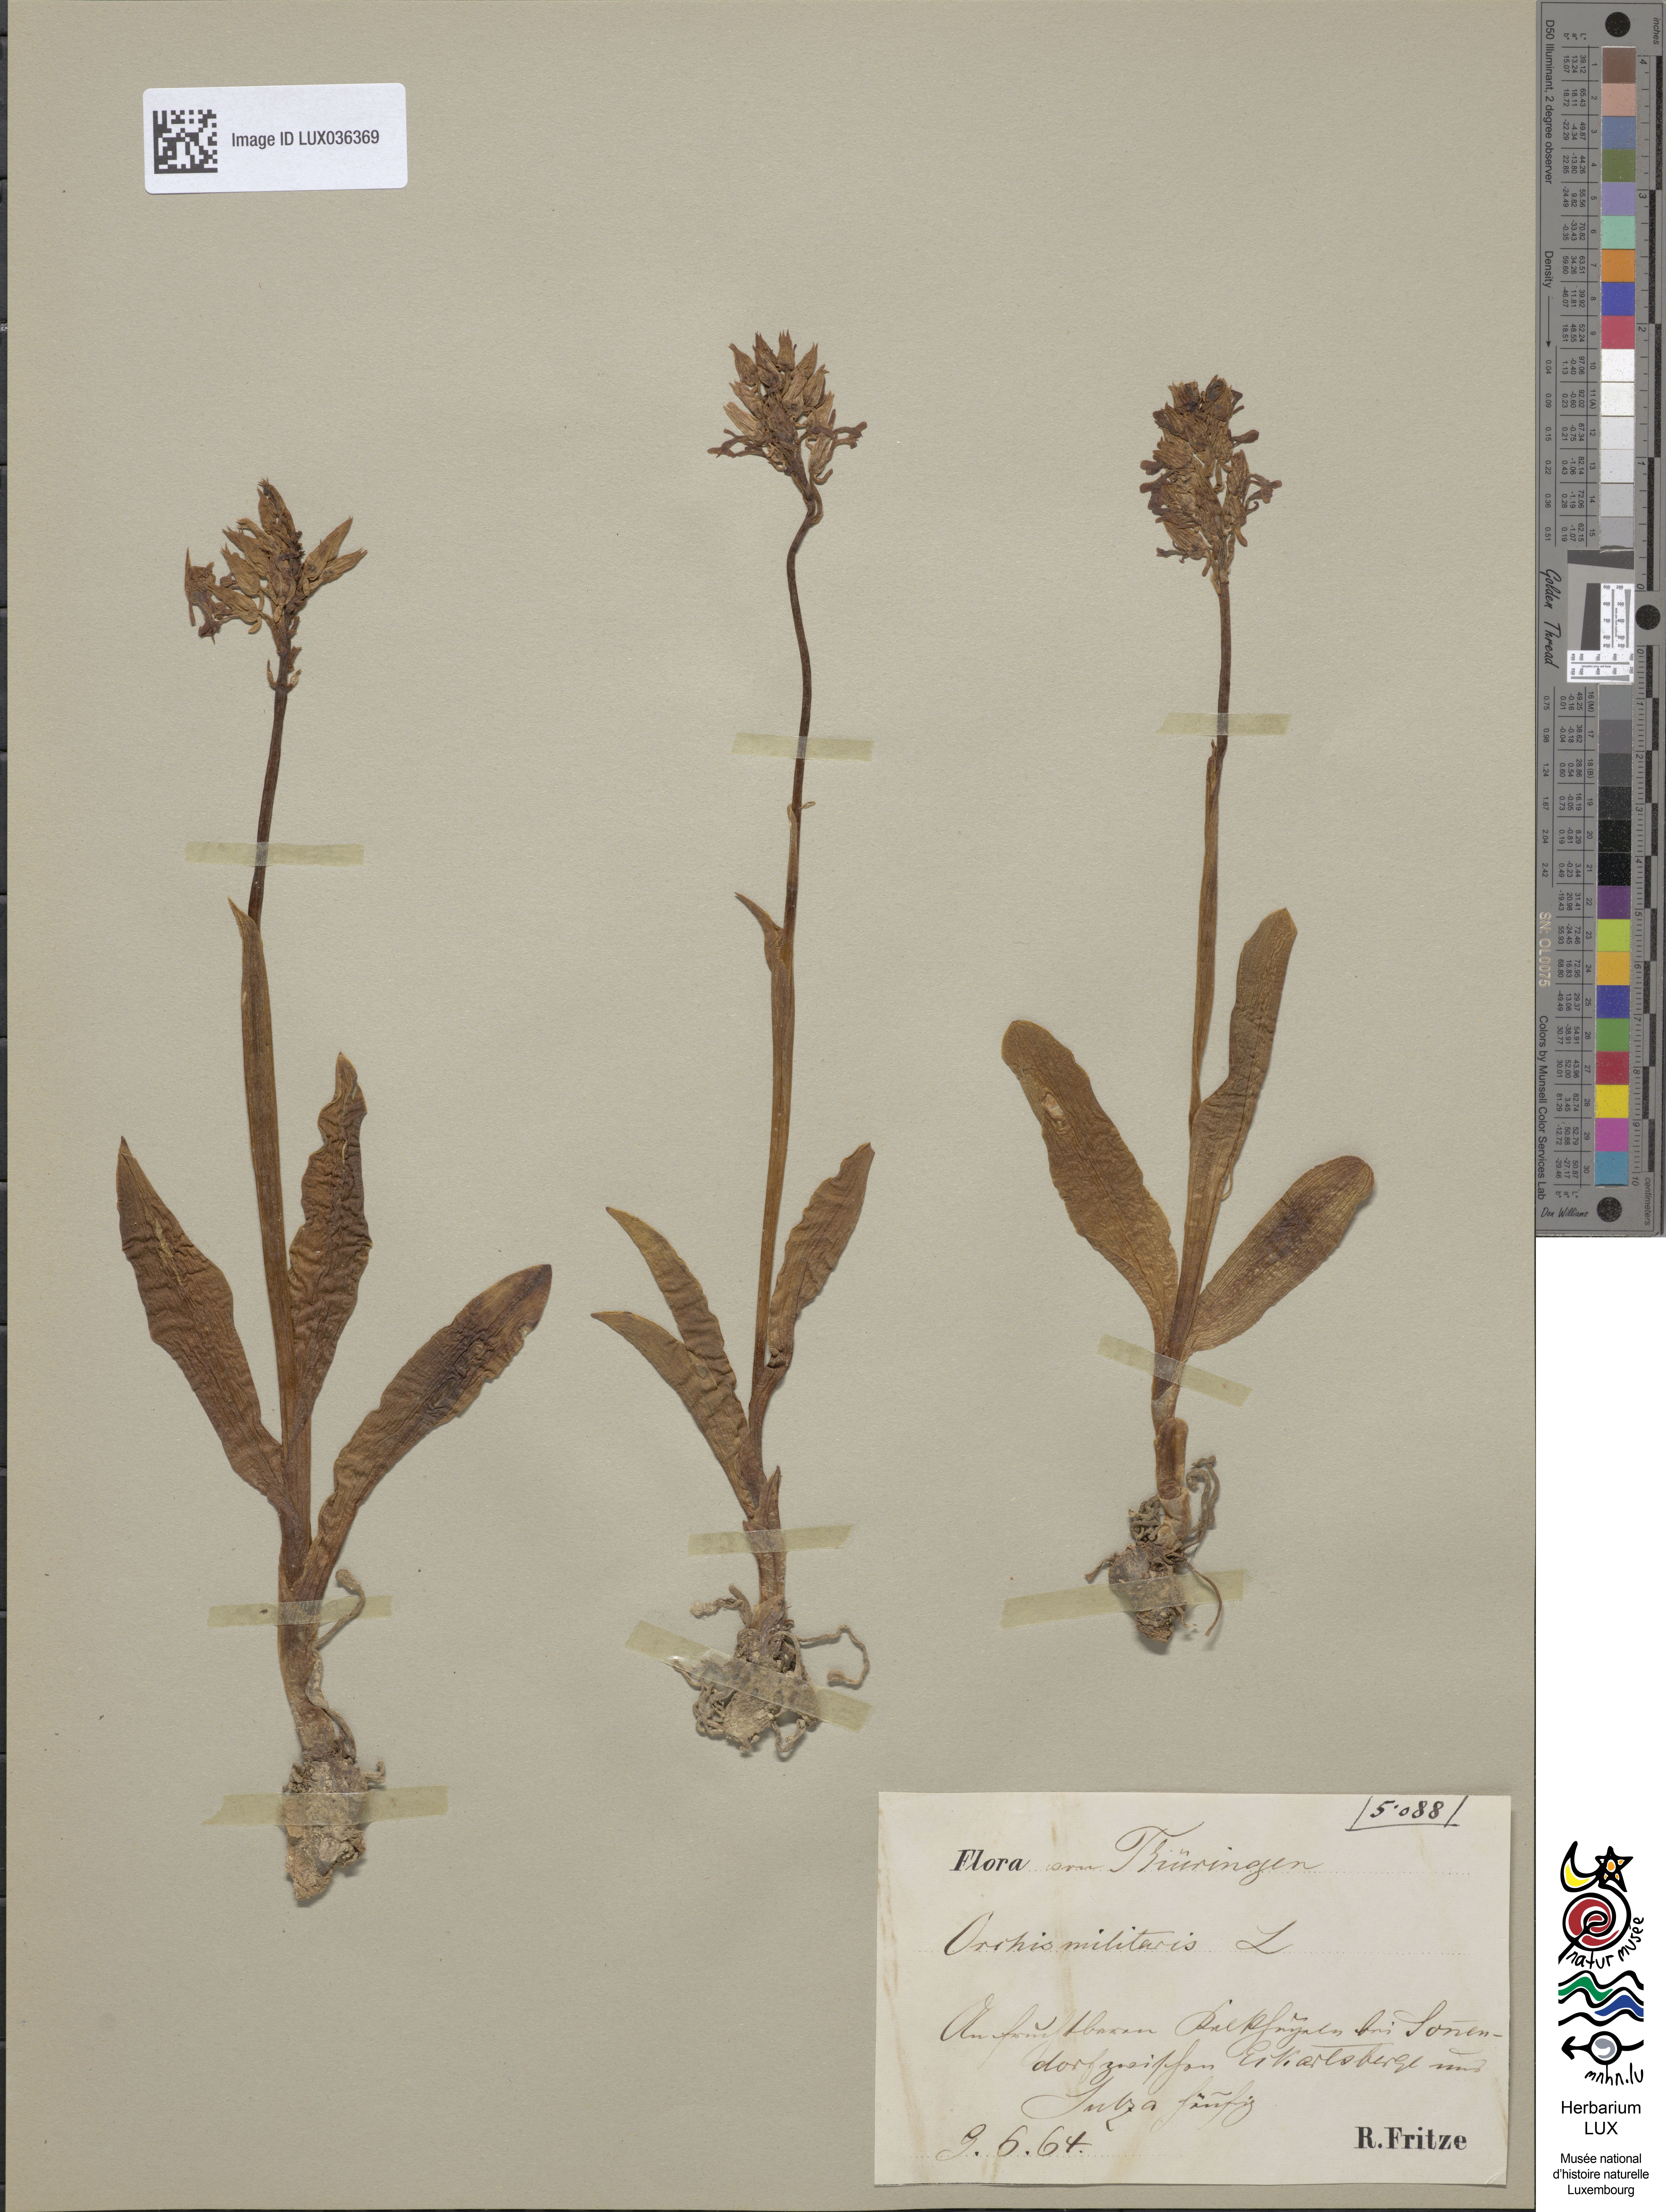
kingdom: Plantae
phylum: Tracheophyta
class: Liliopsida
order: Asparagales
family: Orchidaceae
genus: Orchis
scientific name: Orchis militaris
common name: Military orchid
